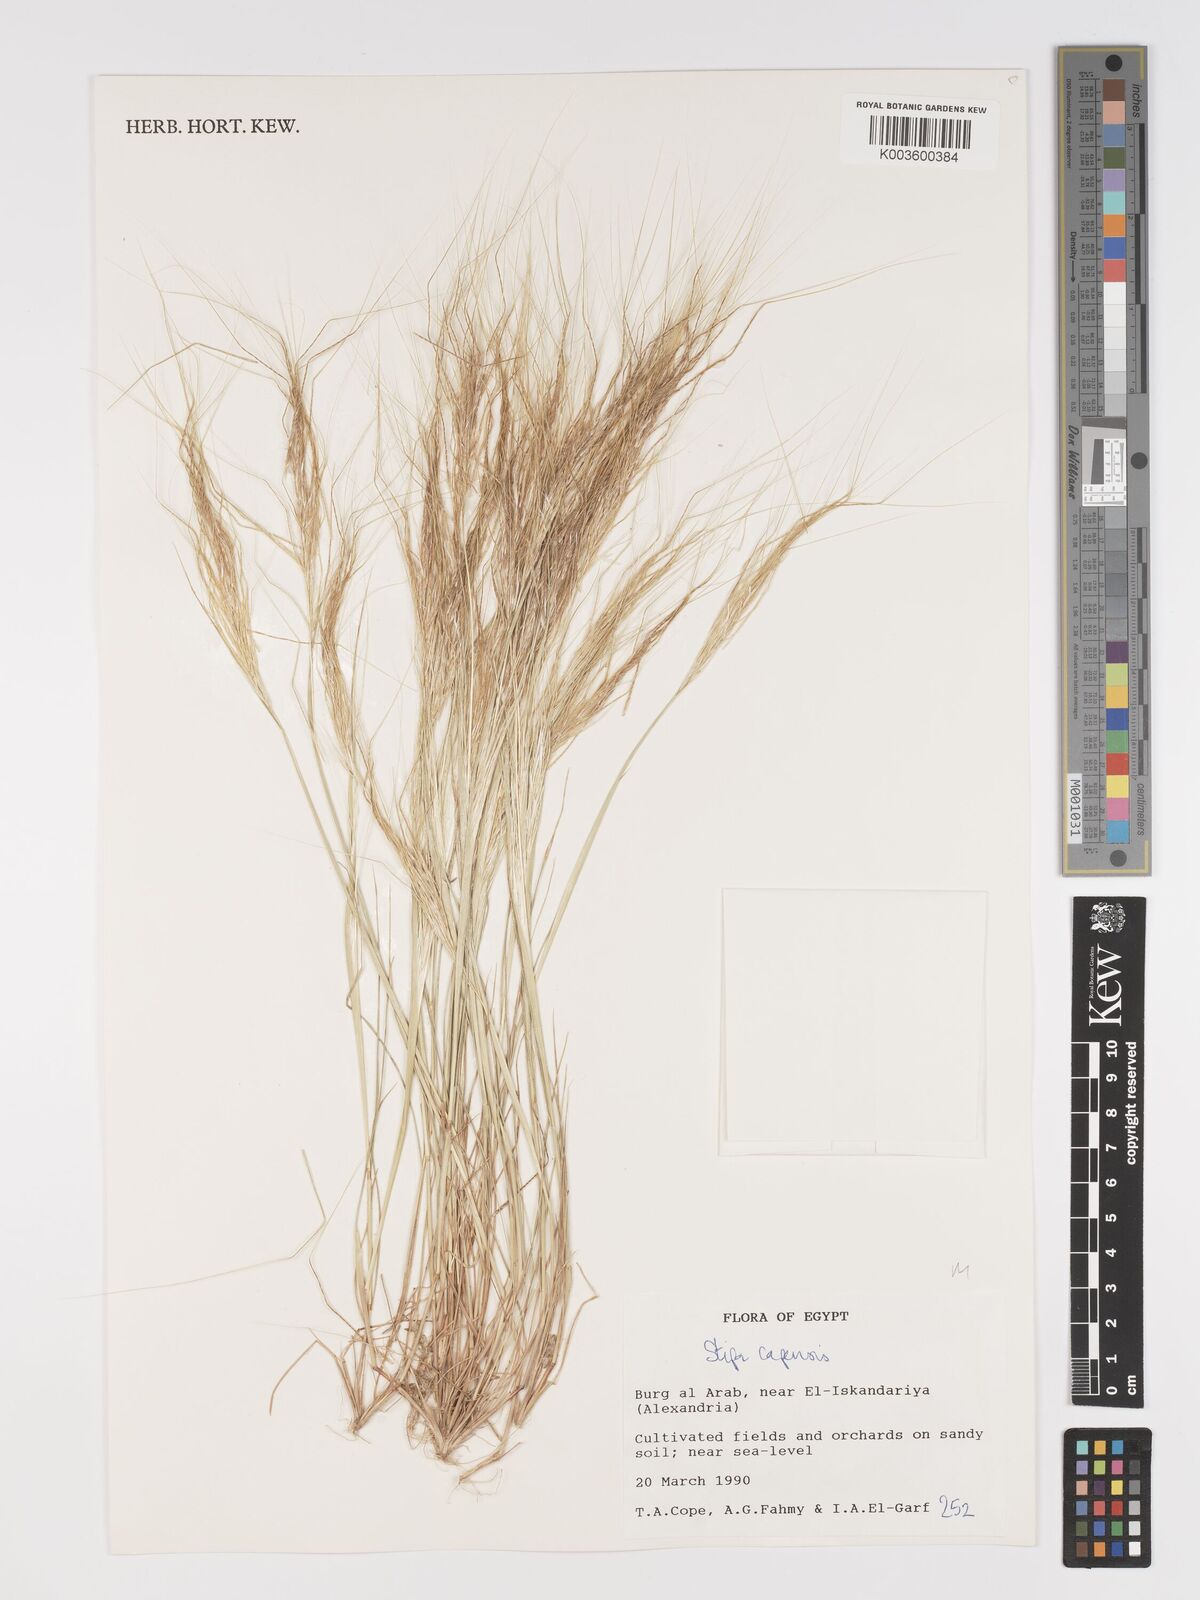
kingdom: Plantae
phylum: Tracheophyta
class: Liliopsida
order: Poales
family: Poaceae
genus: Stipellula
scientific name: Stipellula capensis
